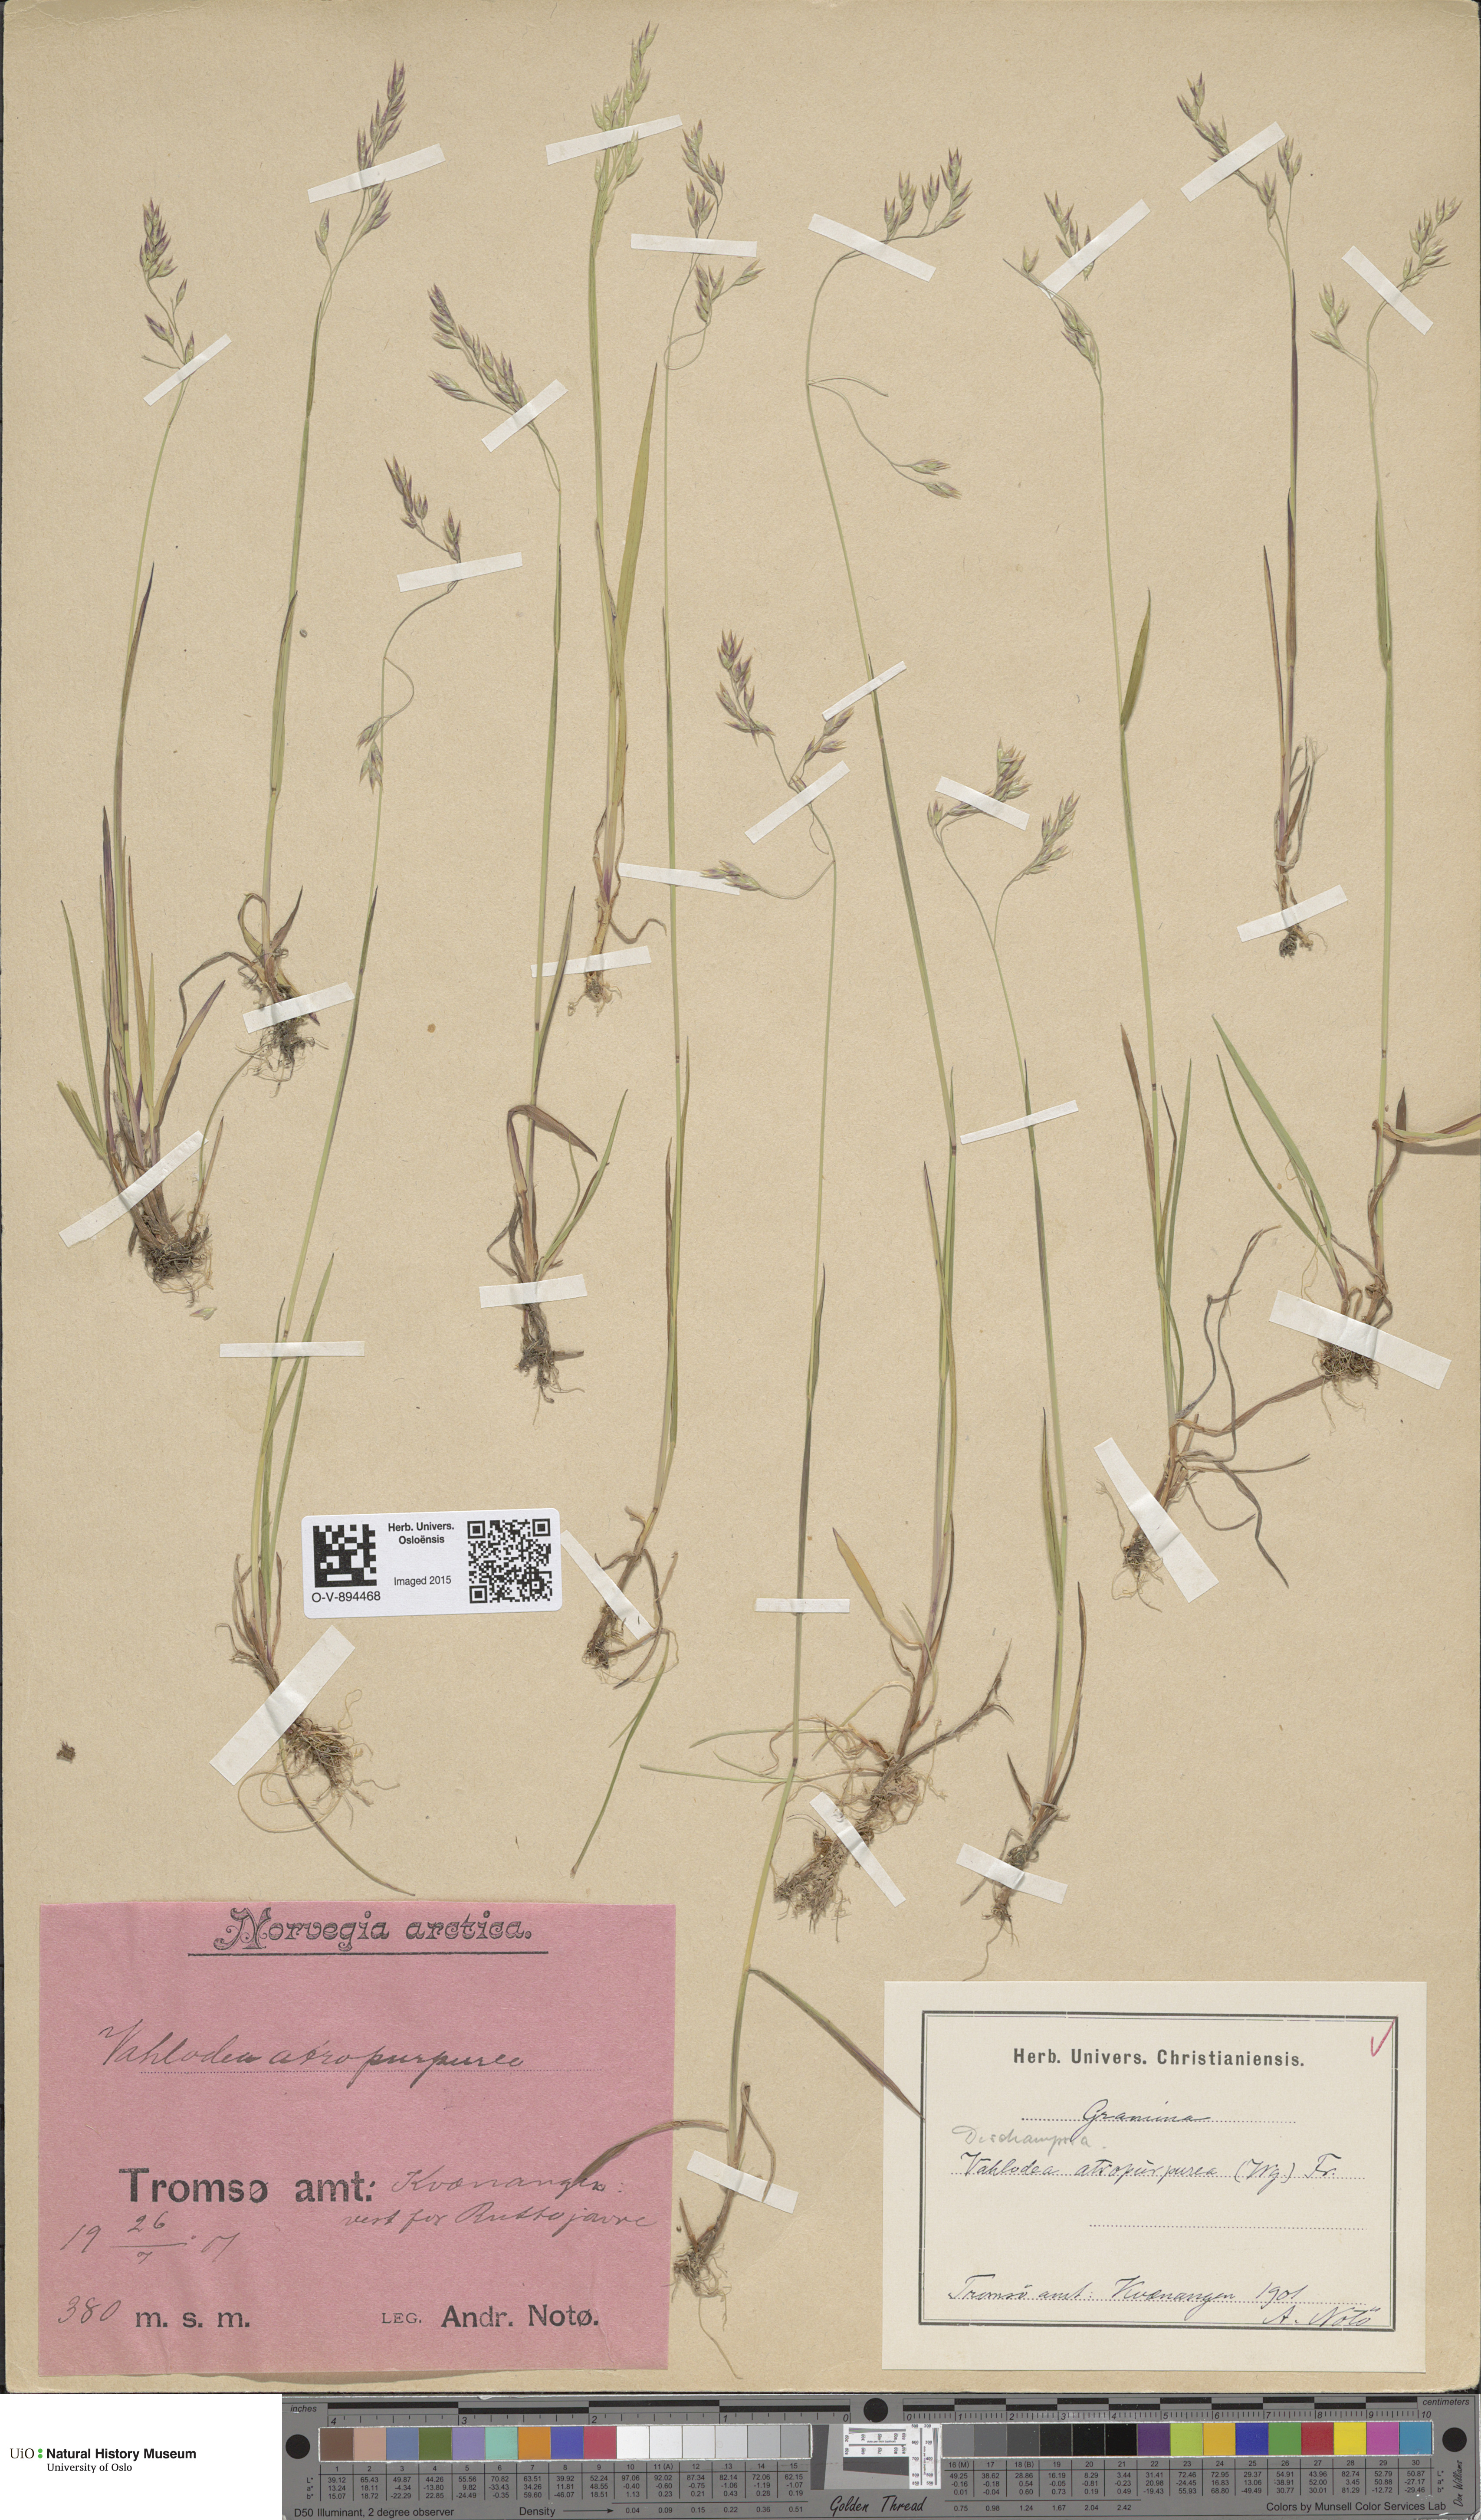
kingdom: Plantae
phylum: Tracheophyta
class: Liliopsida
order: Poales
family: Poaceae
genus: Vahlodea
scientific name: Vahlodea atropurpurea
